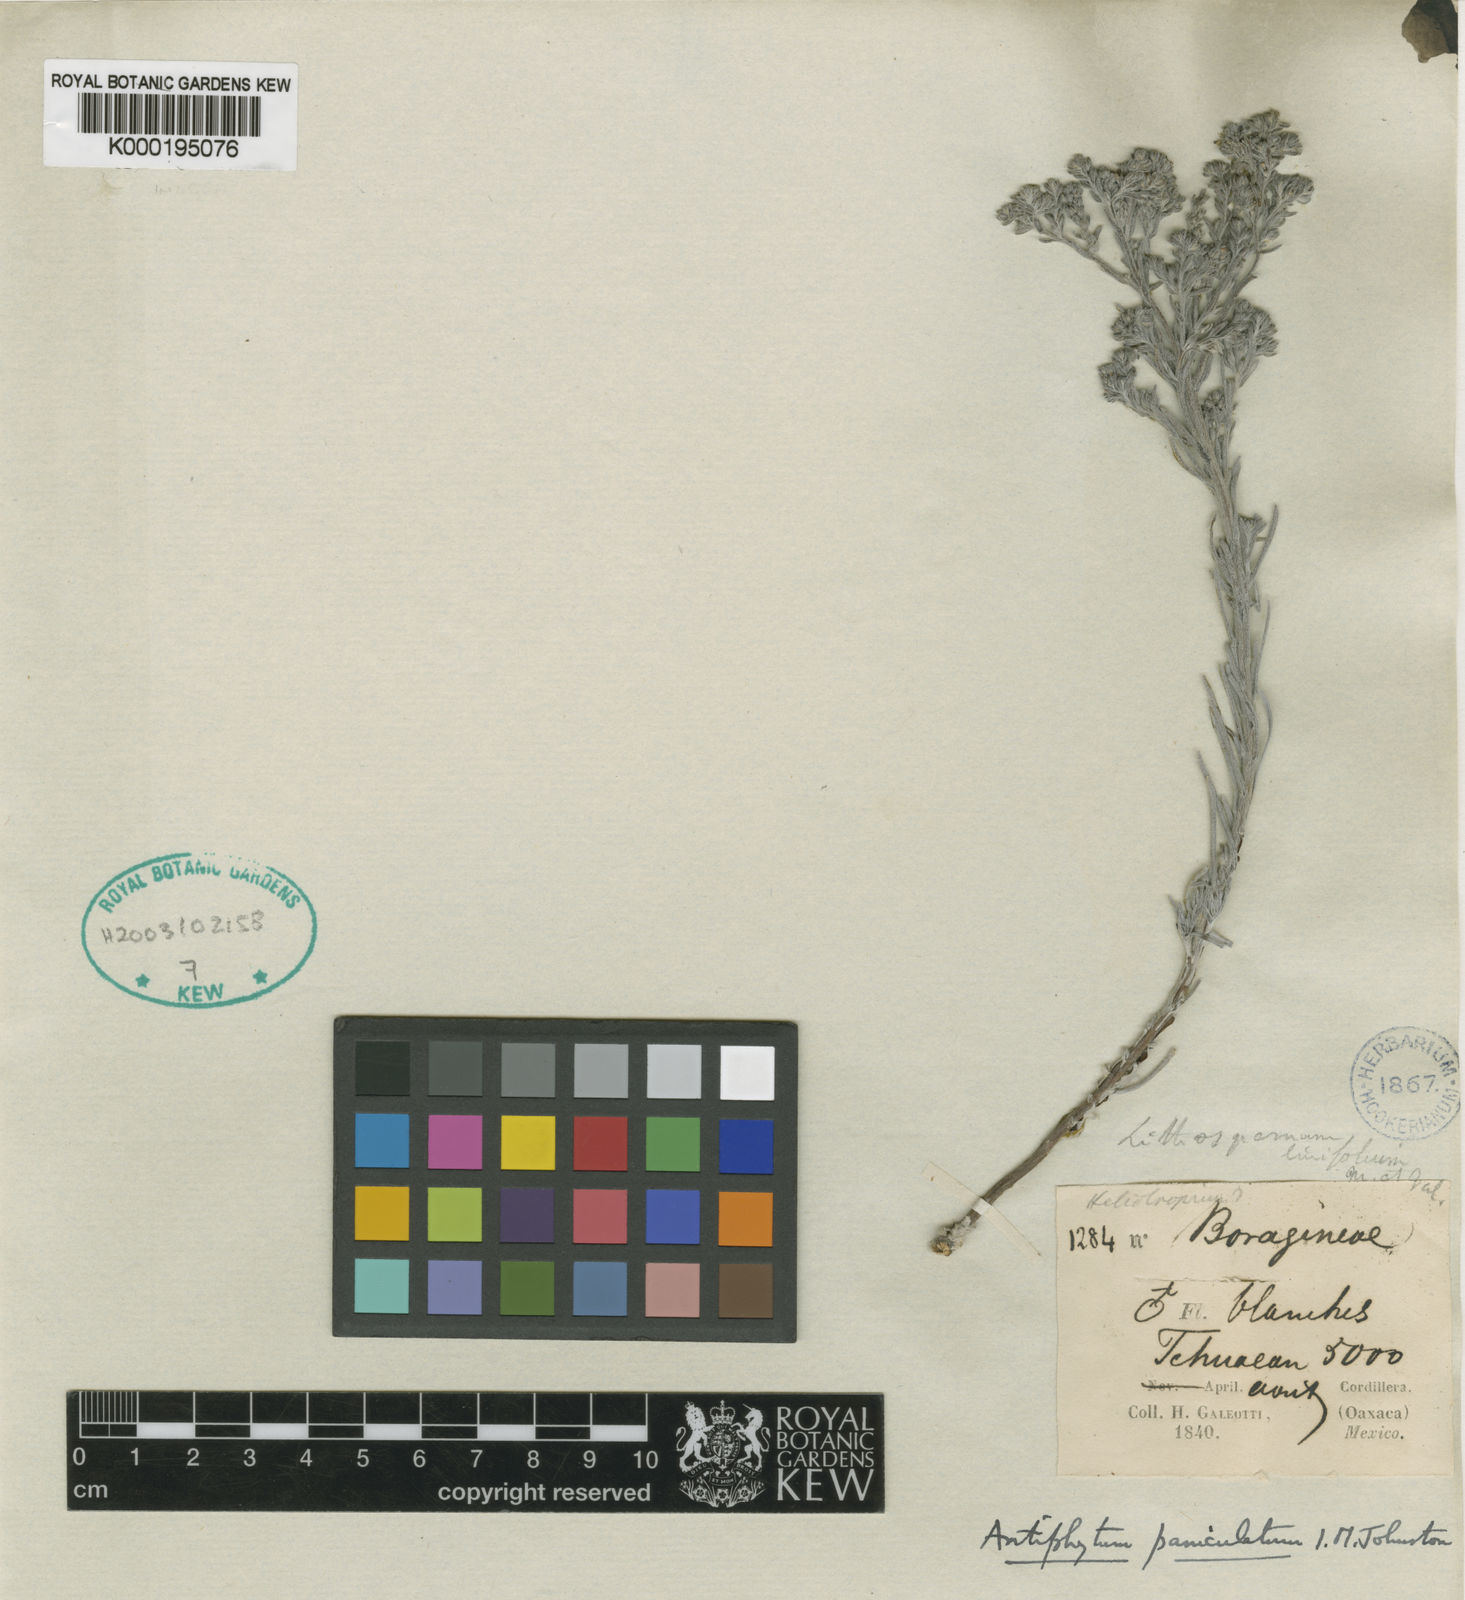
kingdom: Plantae
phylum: Tracheophyta
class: Magnoliopsida
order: Boraginales
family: Boraginaceae
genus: Antiphytum
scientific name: Antiphytum paniculatum
